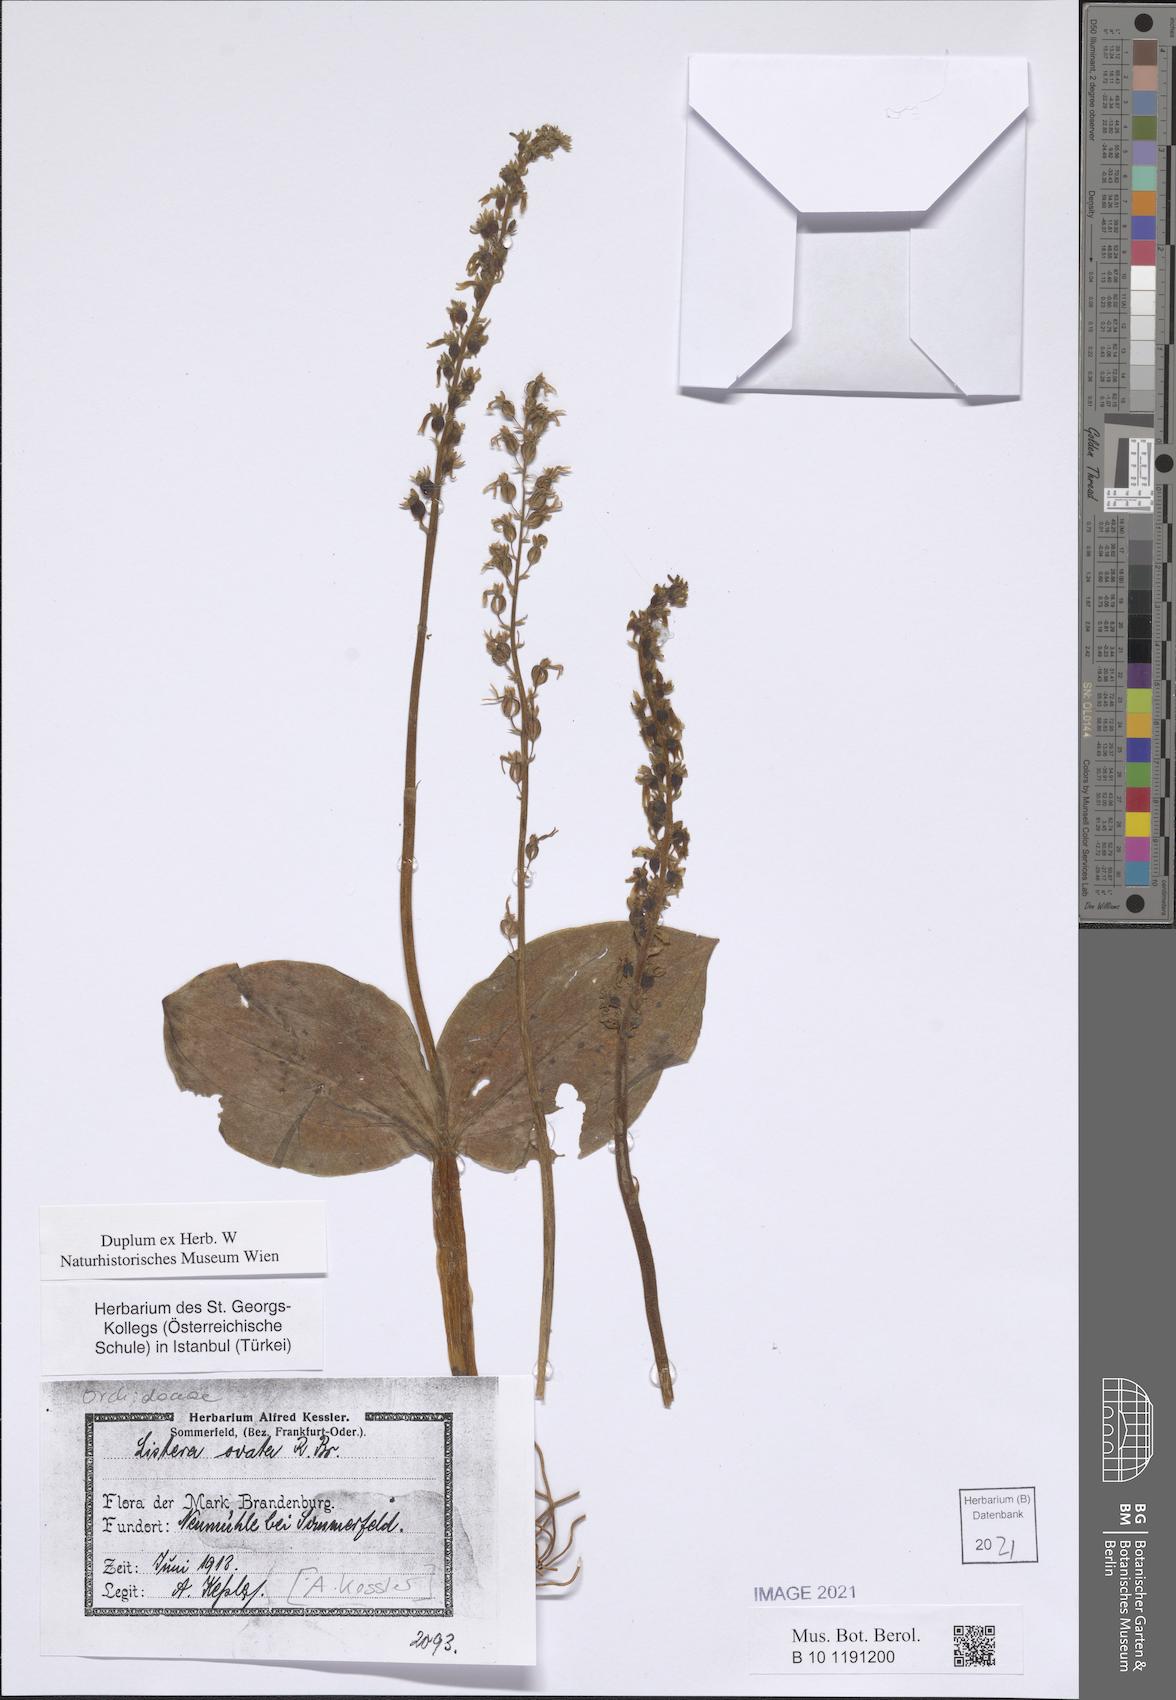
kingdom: Plantae
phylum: Tracheophyta
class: Liliopsida
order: Asparagales
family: Orchidaceae
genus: Neottia
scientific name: Neottia ovata
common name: Common twayblade
